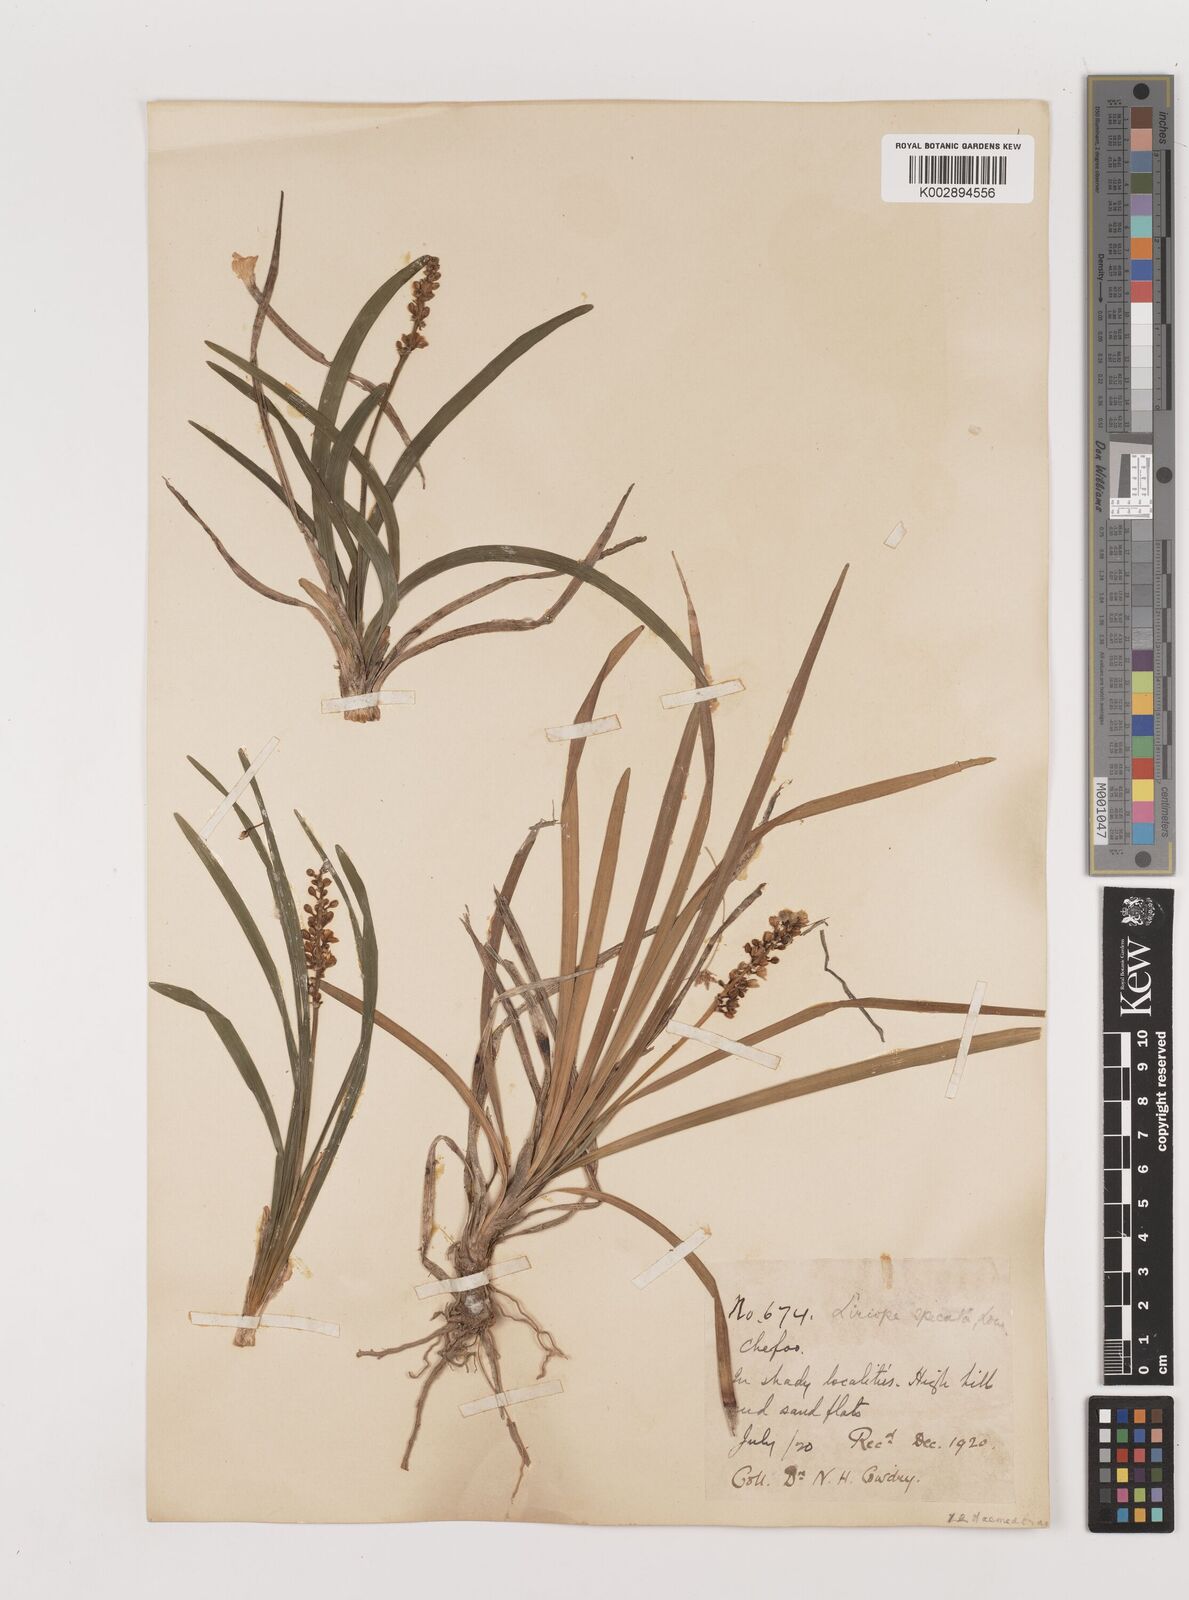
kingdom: Plantae
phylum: Tracheophyta
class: Liliopsida
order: Asparagales
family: Asparagaceae
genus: Liriope
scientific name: Liriope spicata
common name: Creeping liriope
